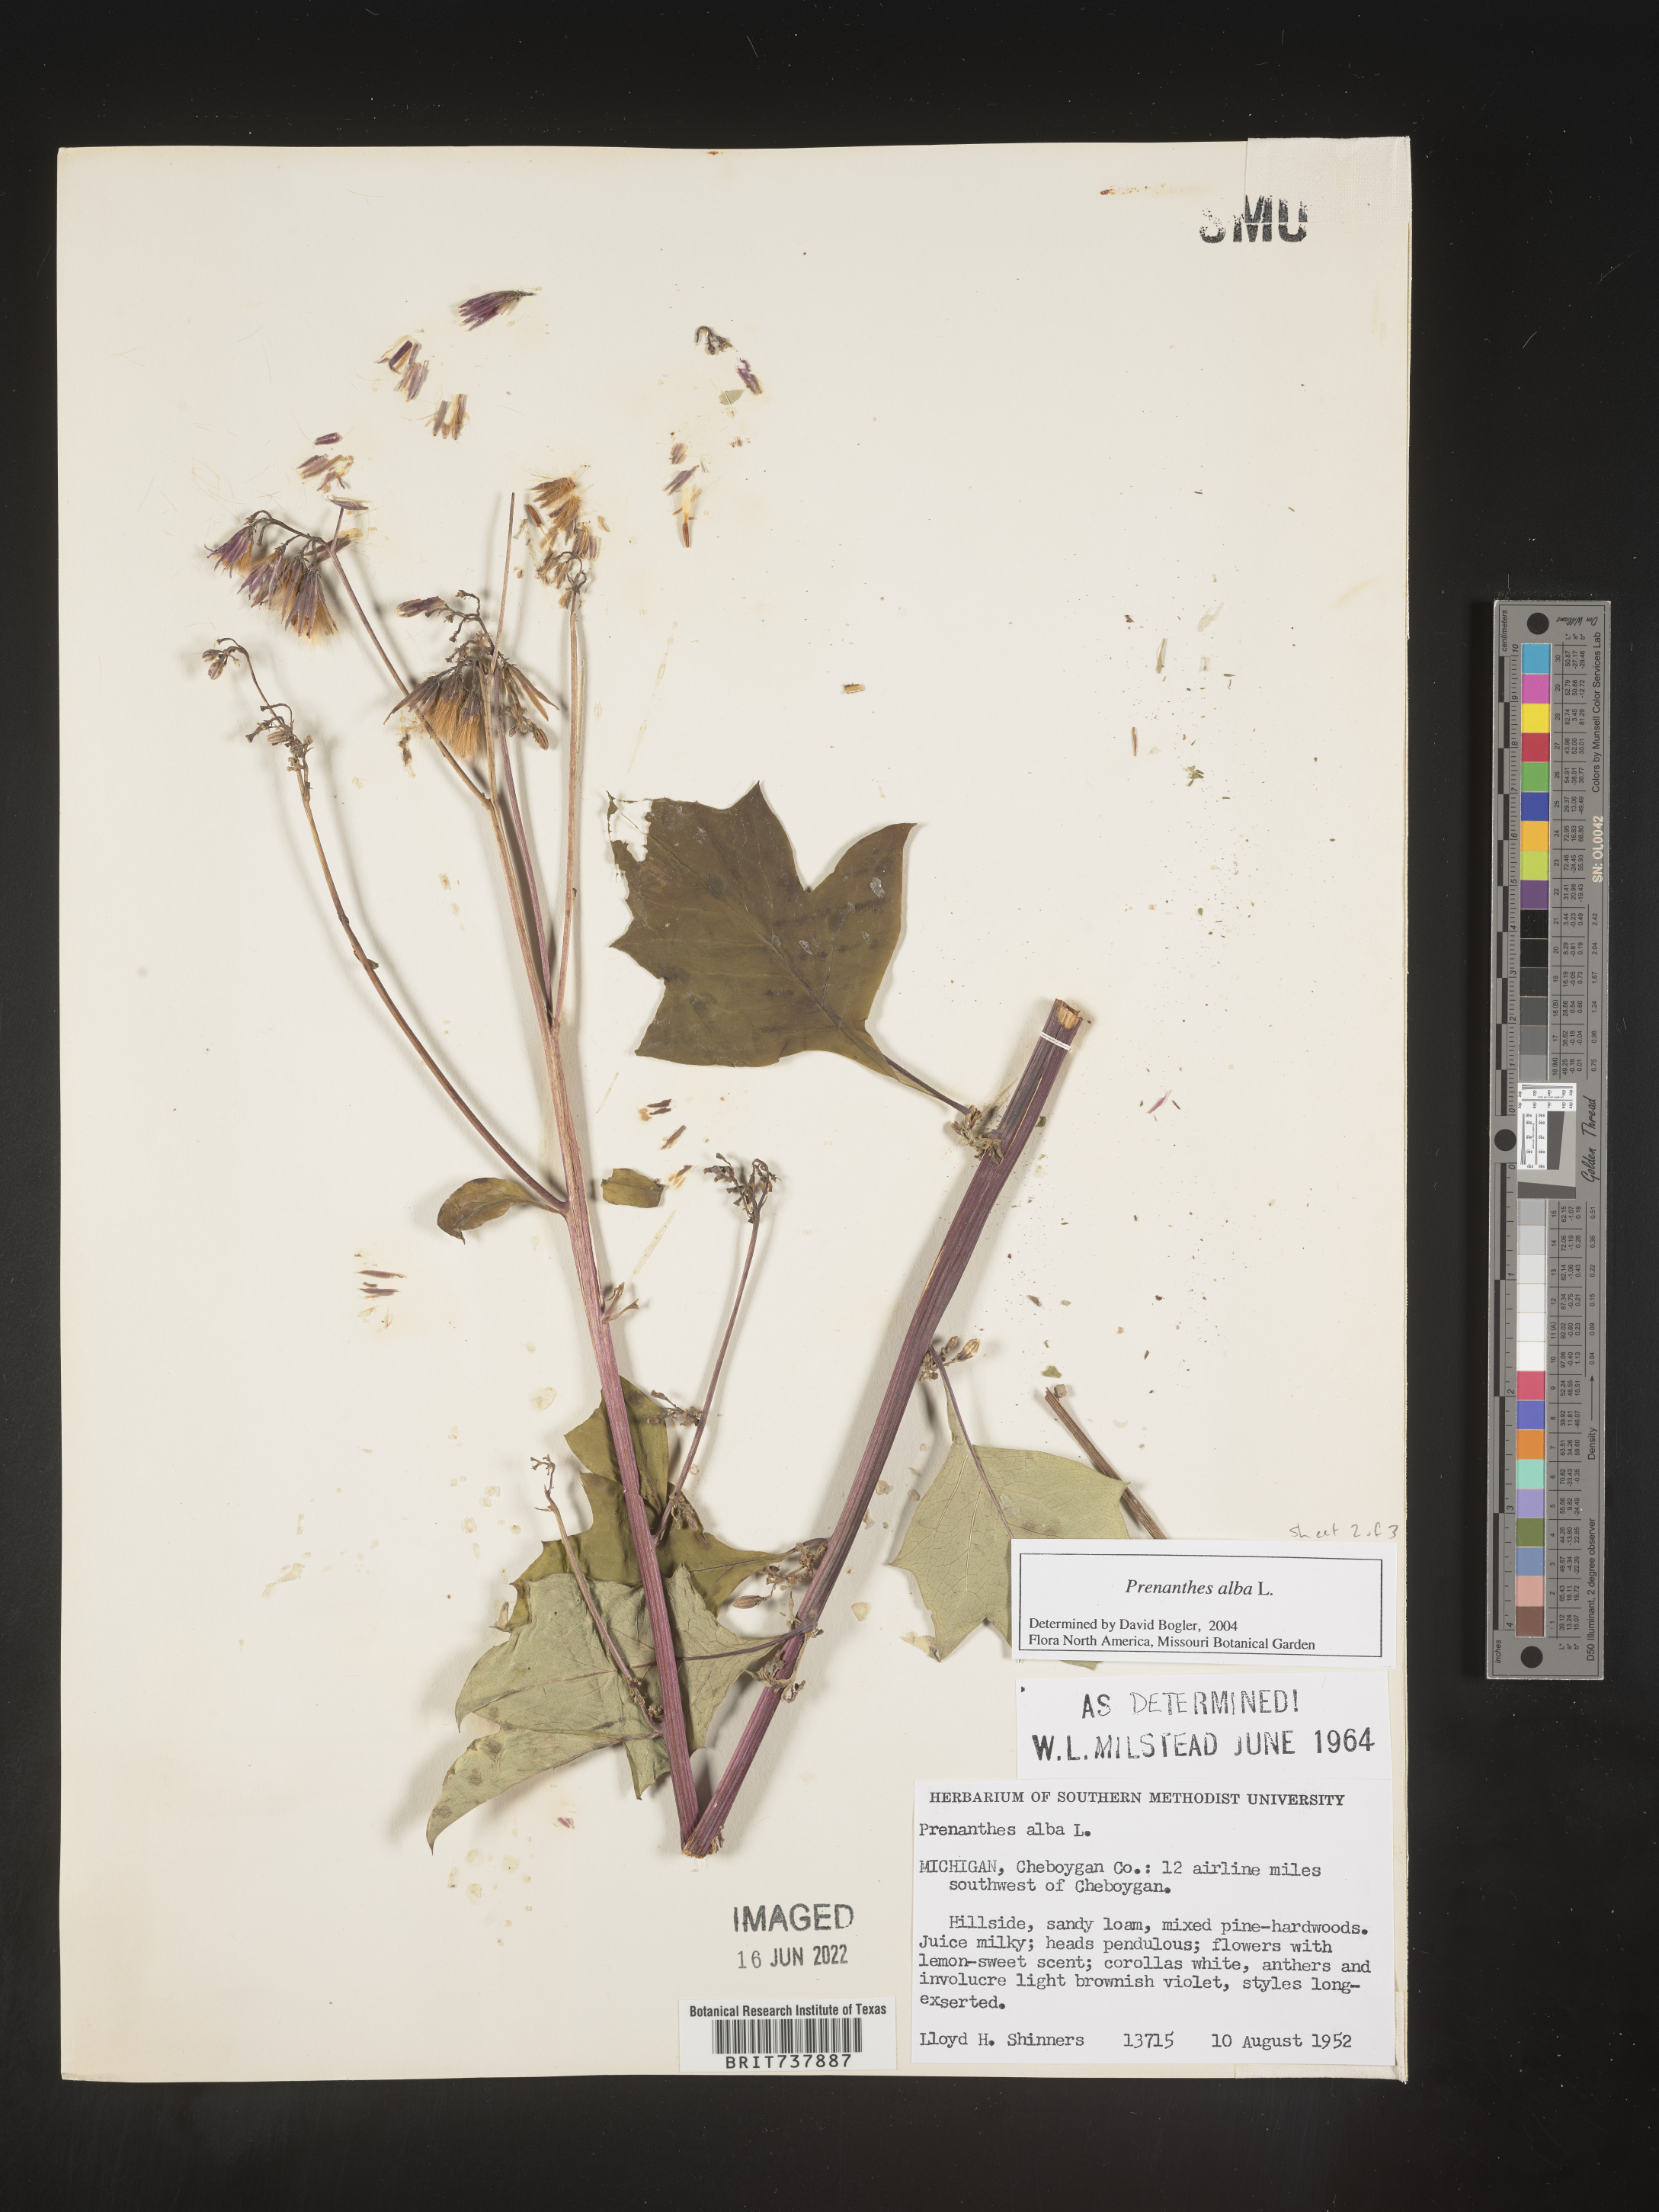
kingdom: Plantae
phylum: Tracheophyta
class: Magnoliopsida
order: Asterales
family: Asteraceae
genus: Nabalus
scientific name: Nabalus albus
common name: White rattlesnakeroot
